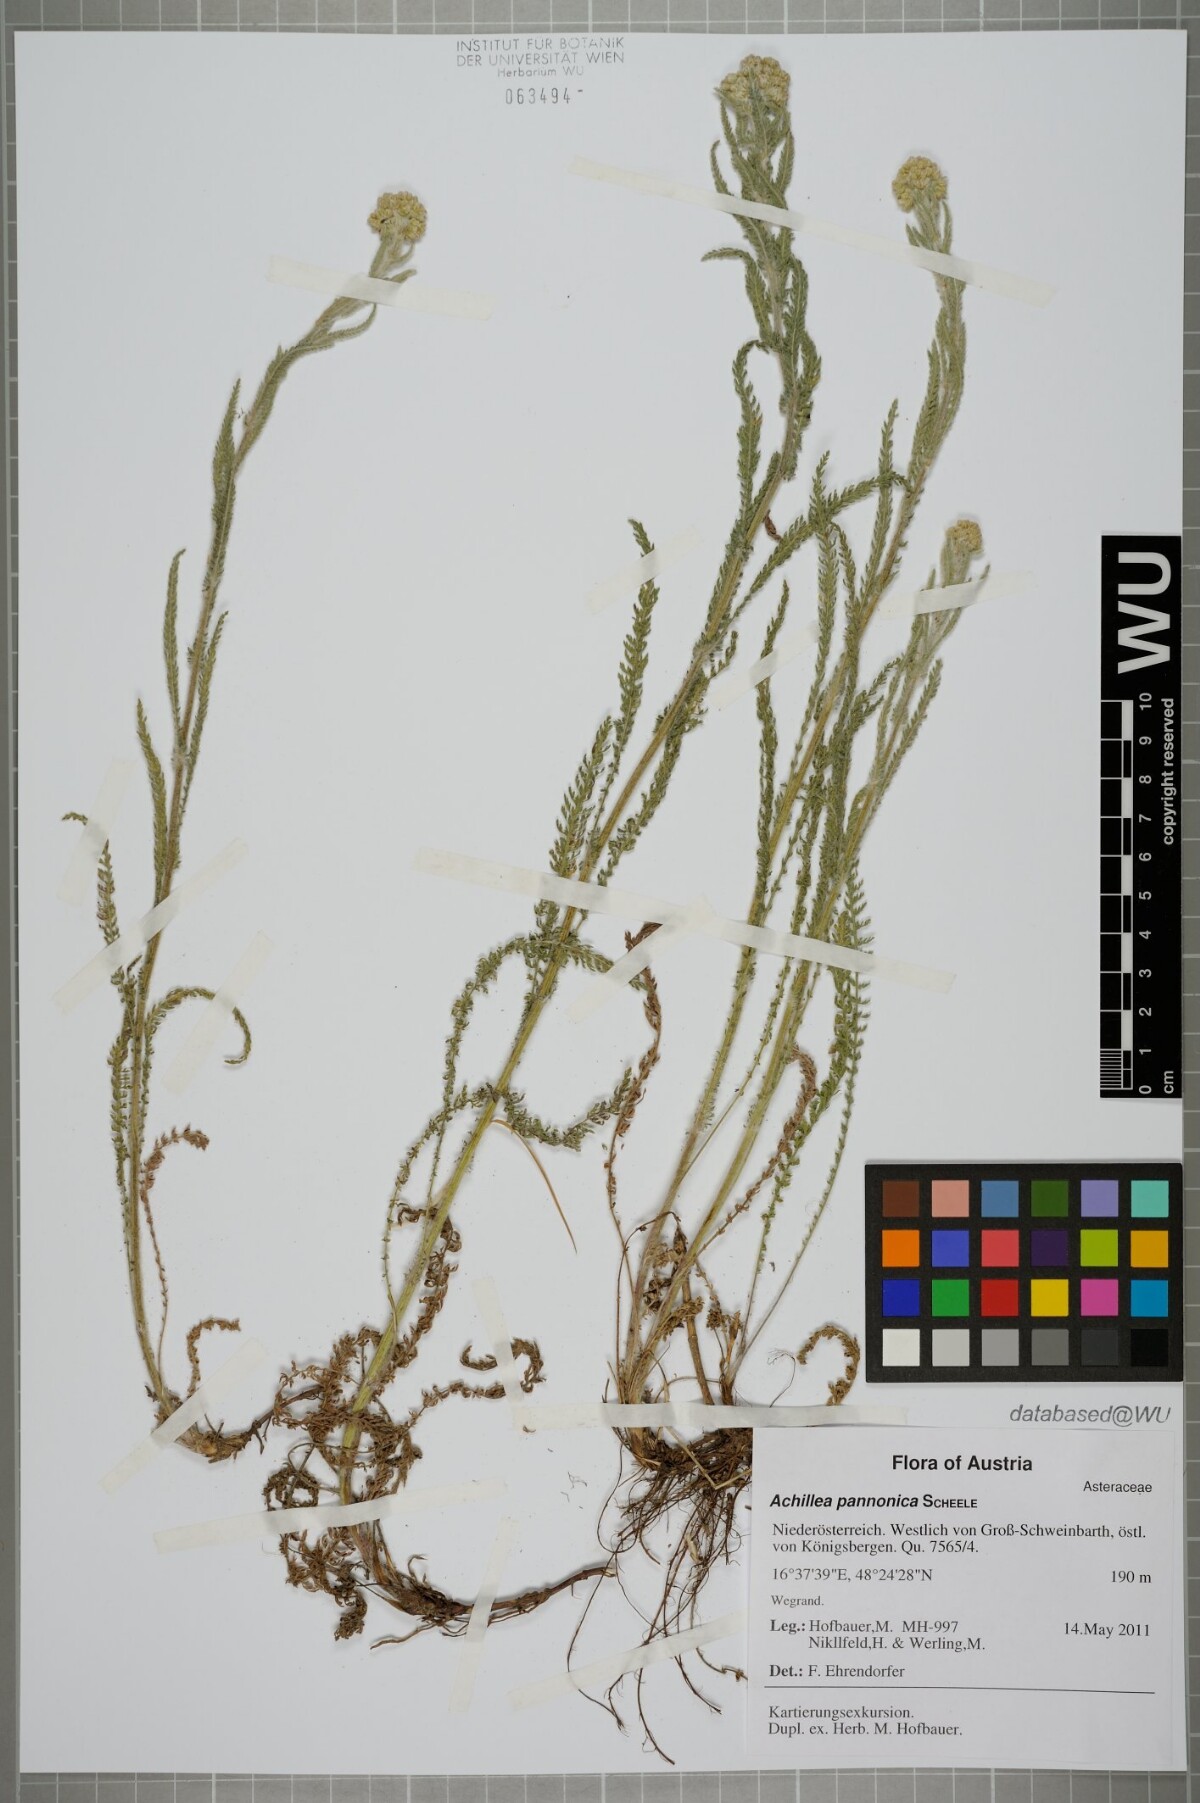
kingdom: Plantae
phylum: Tracheophyta
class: Magnoliopsida
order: Asterales
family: Asteraceae
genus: Achillea
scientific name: Achillea pannonica
